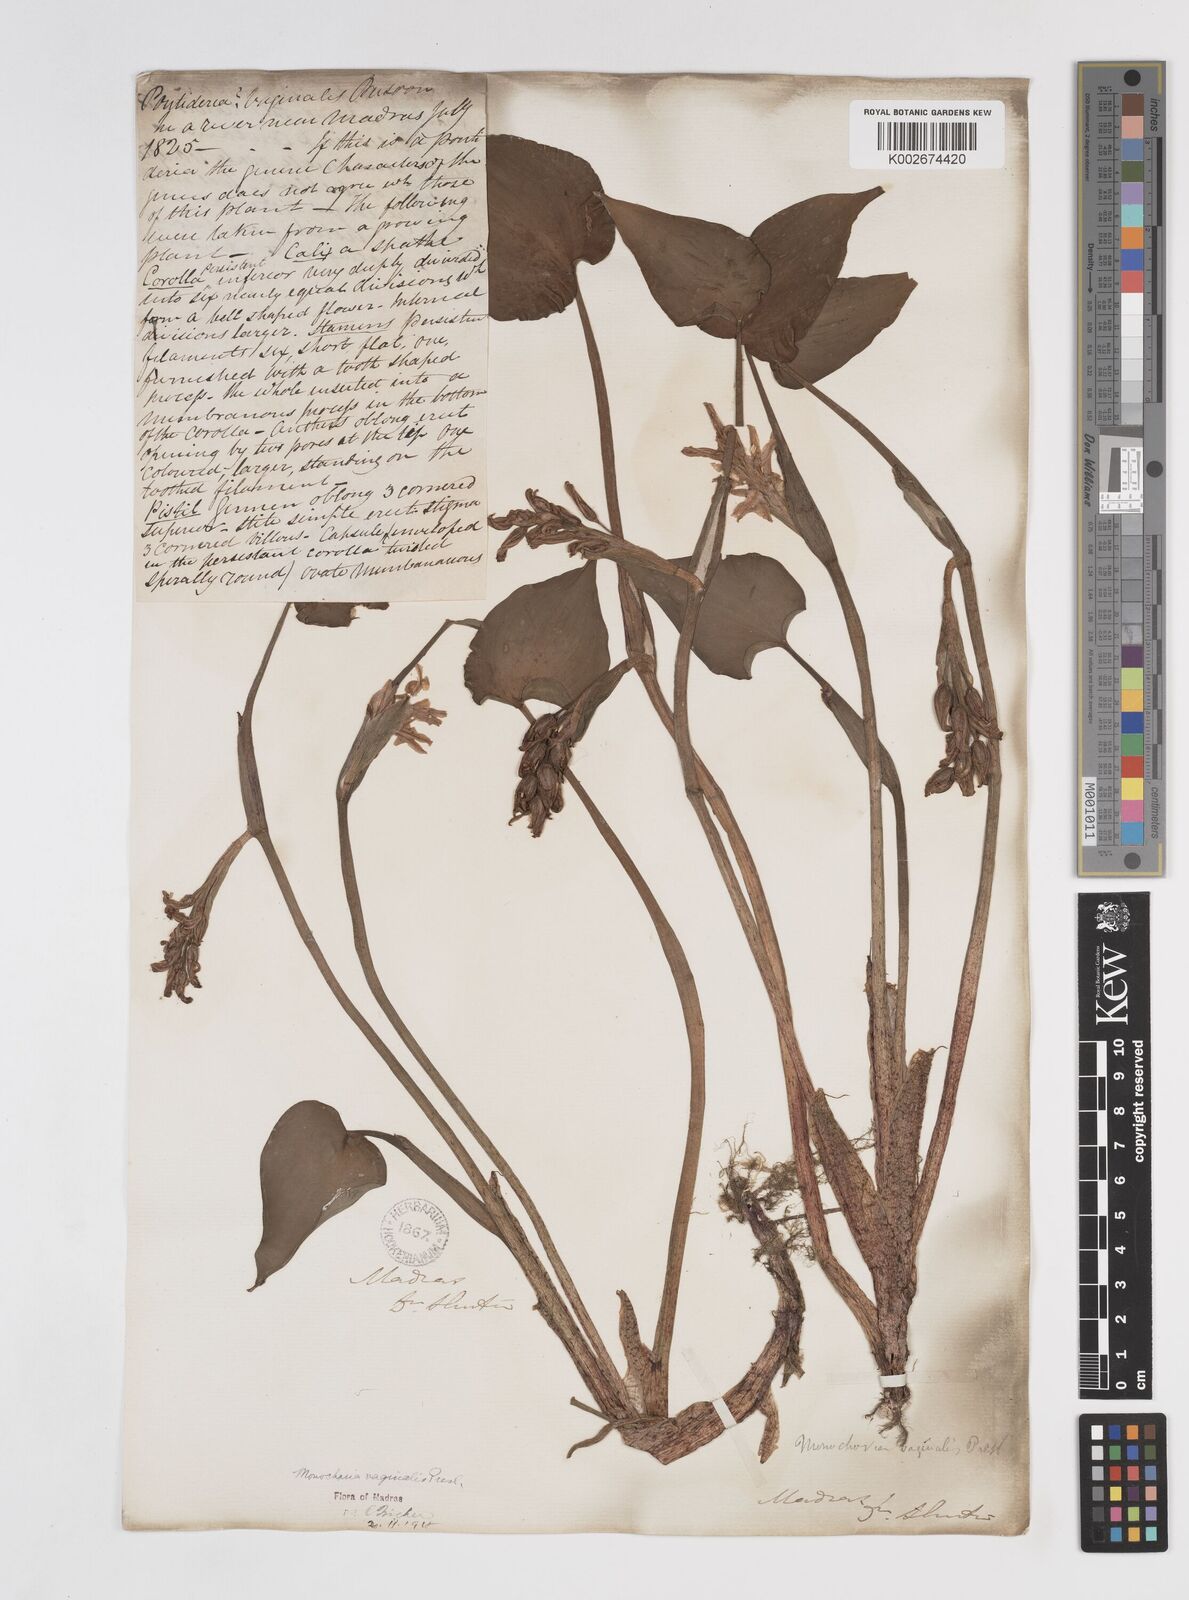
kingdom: Plantae
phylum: Tracheophyta
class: Liliopsida
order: Commelinales
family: Pontederiaceae
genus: Pontederia
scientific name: Pontederia vaginalis
